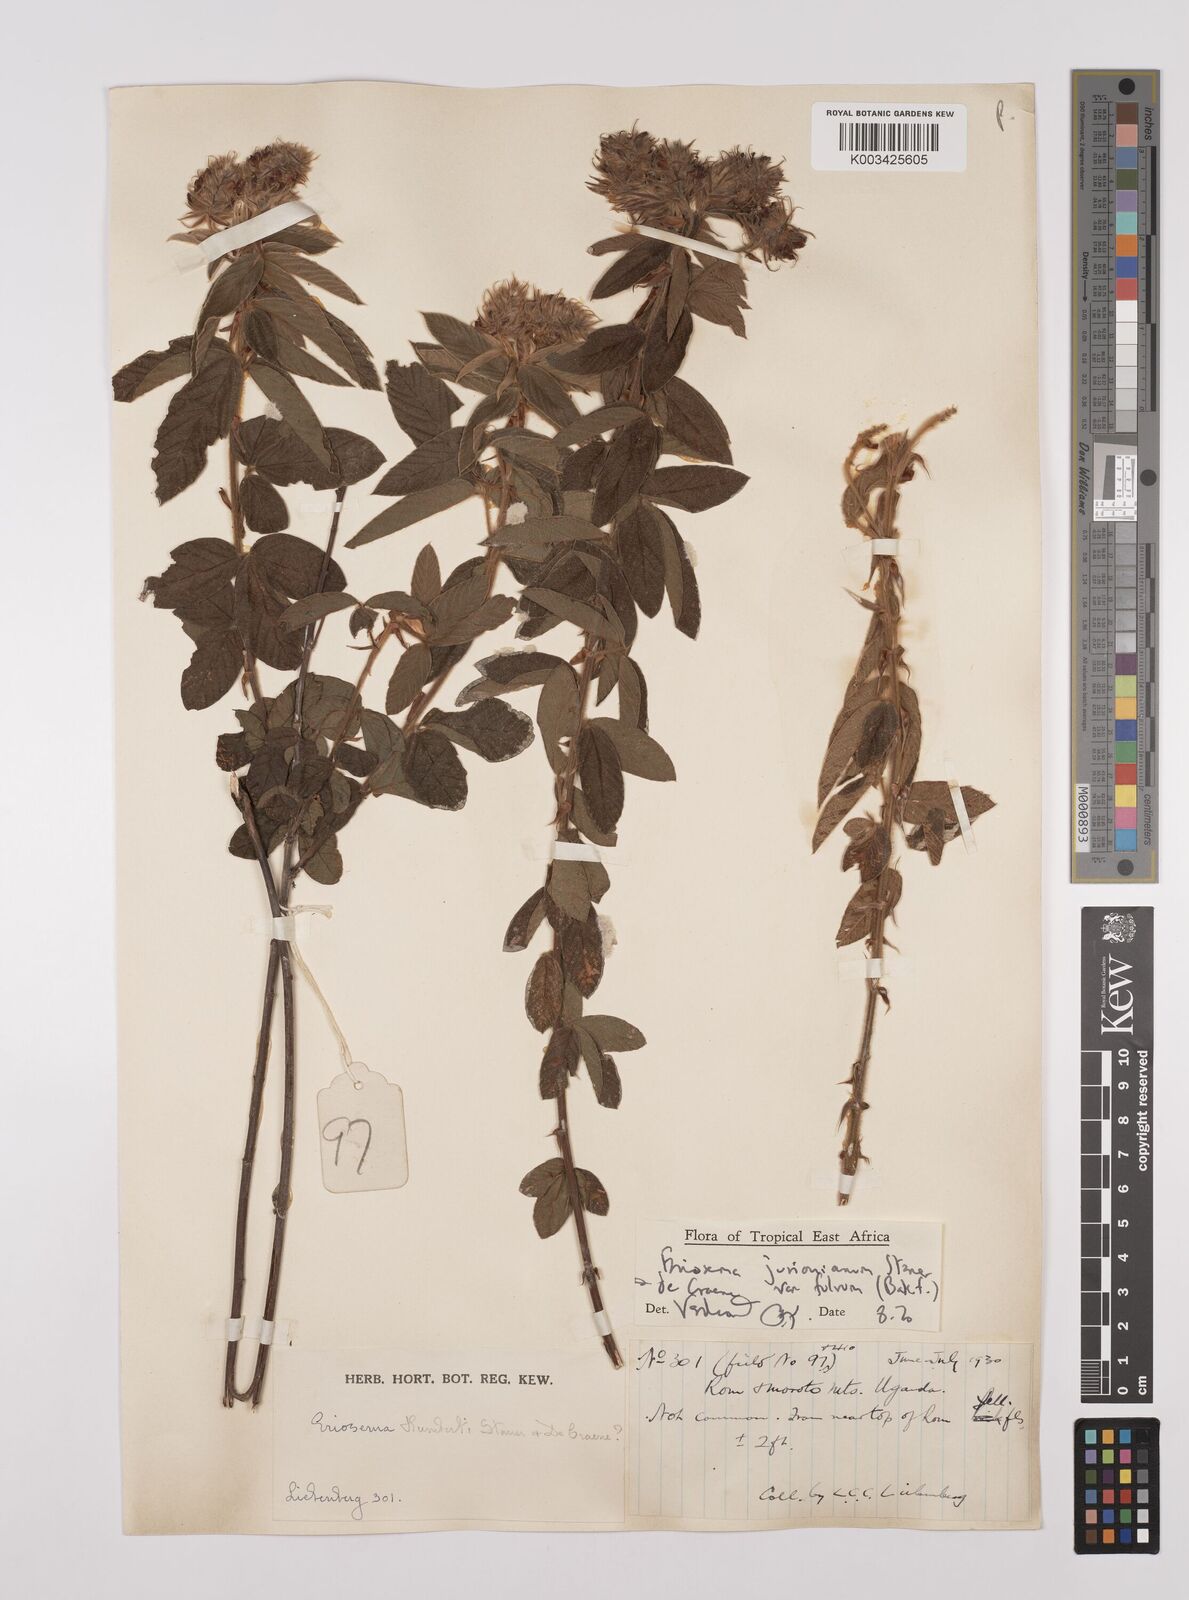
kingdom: Plantae
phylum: Tracheophyta
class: Magnoliopsida
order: Fabales
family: Fabaceae
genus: Eriosema
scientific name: Eriosema jurionianum
